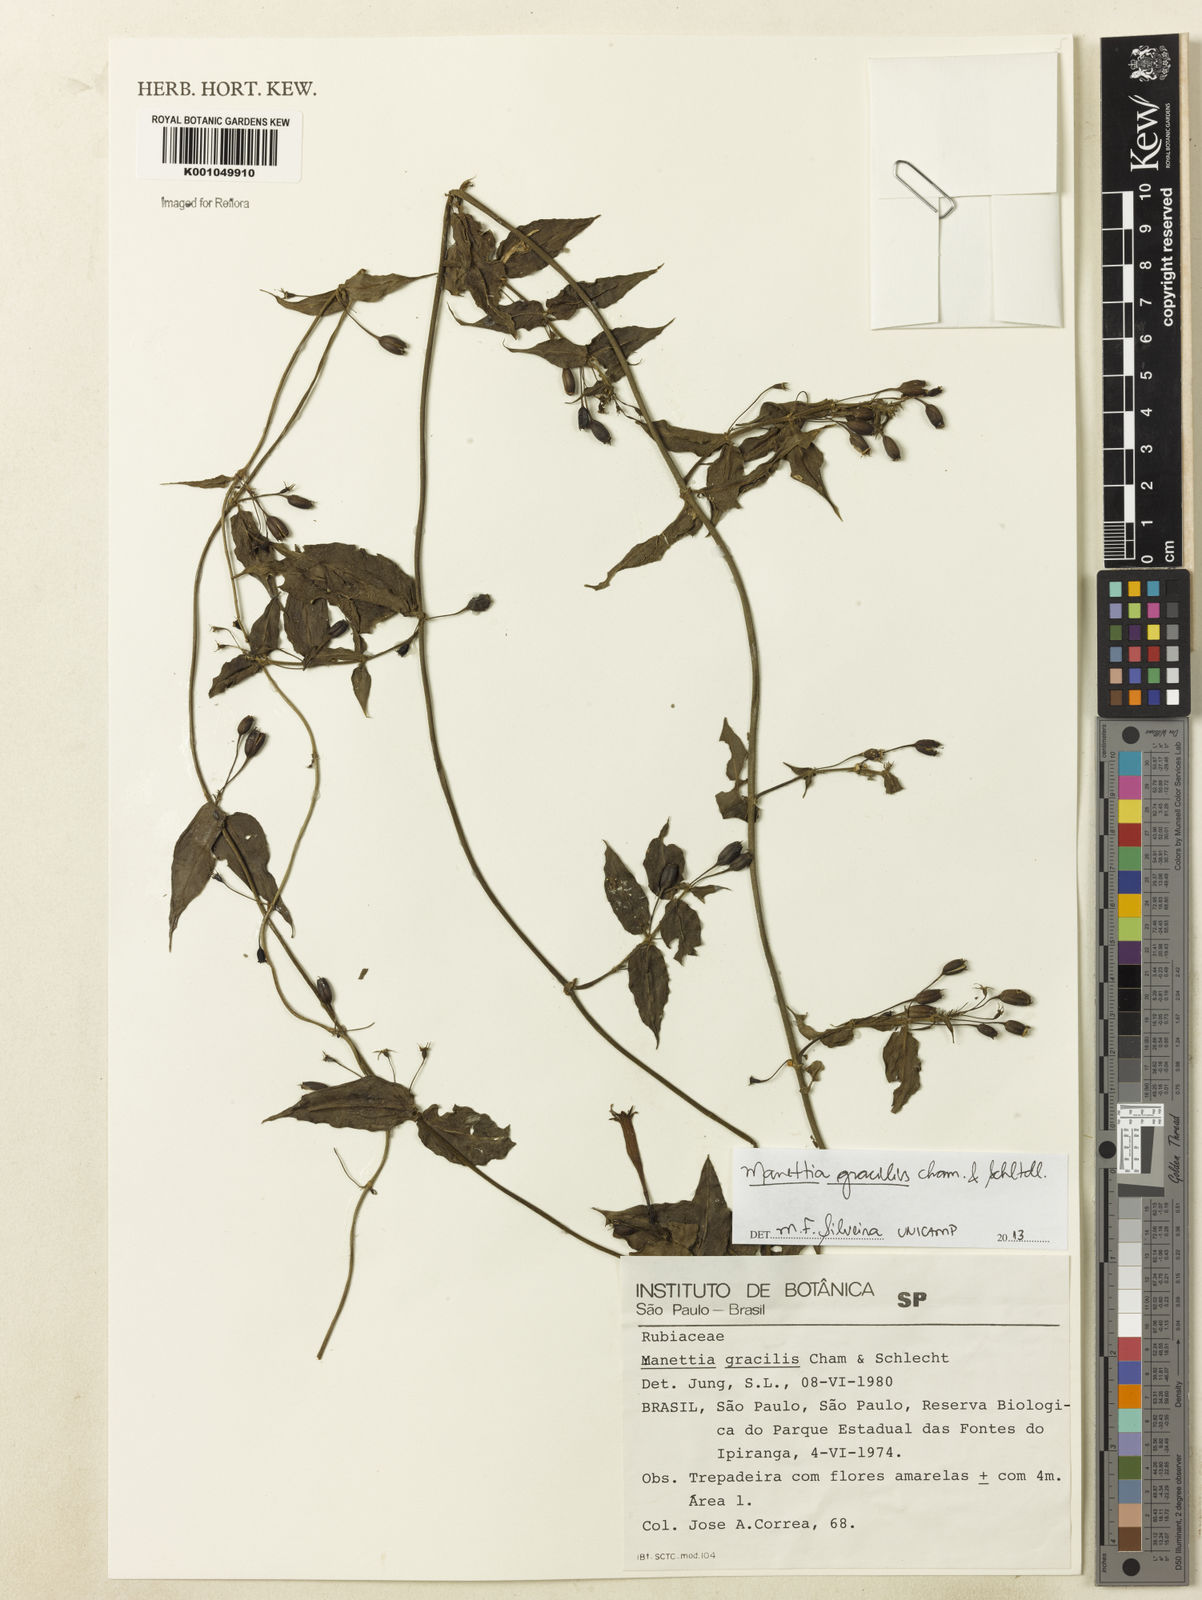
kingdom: Plantae
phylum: Tracheophyta
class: Magnoliopsida
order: Gentianales
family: Rubiaceae
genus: Manettia
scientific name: Manettia gracilis
